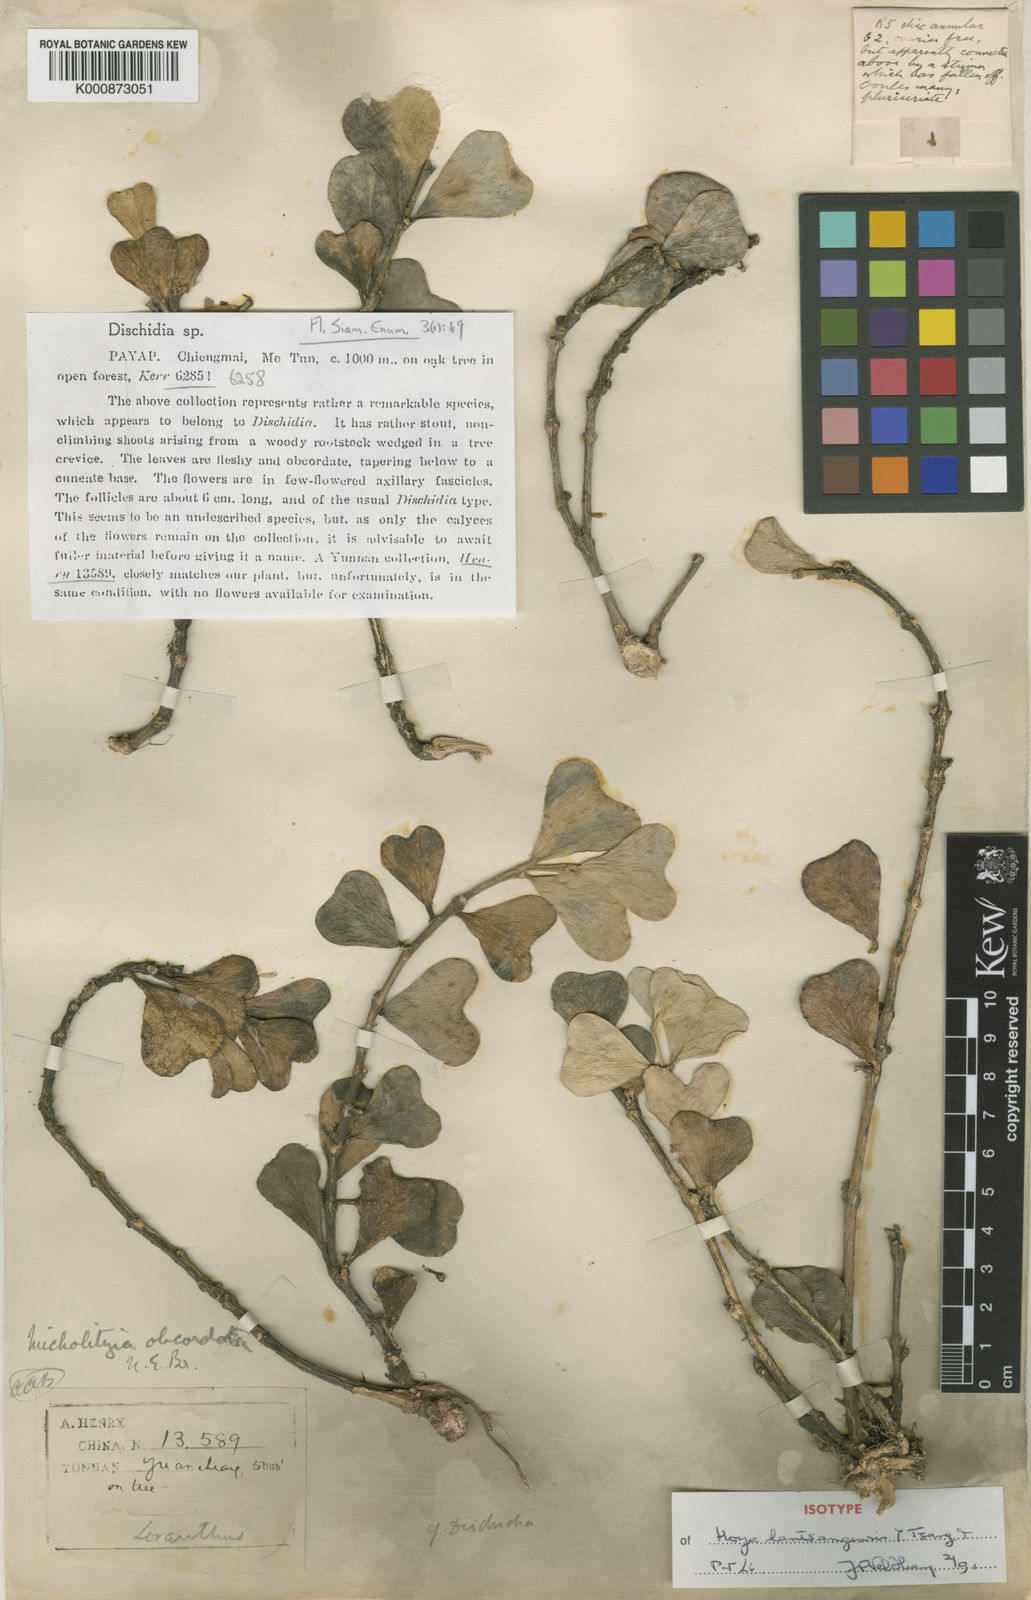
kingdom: Plantae
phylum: Tracheophyta
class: Magnoliopsida
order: Gentianales
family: Apocynaceae
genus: Hoya
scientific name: Hoya manipurensis
